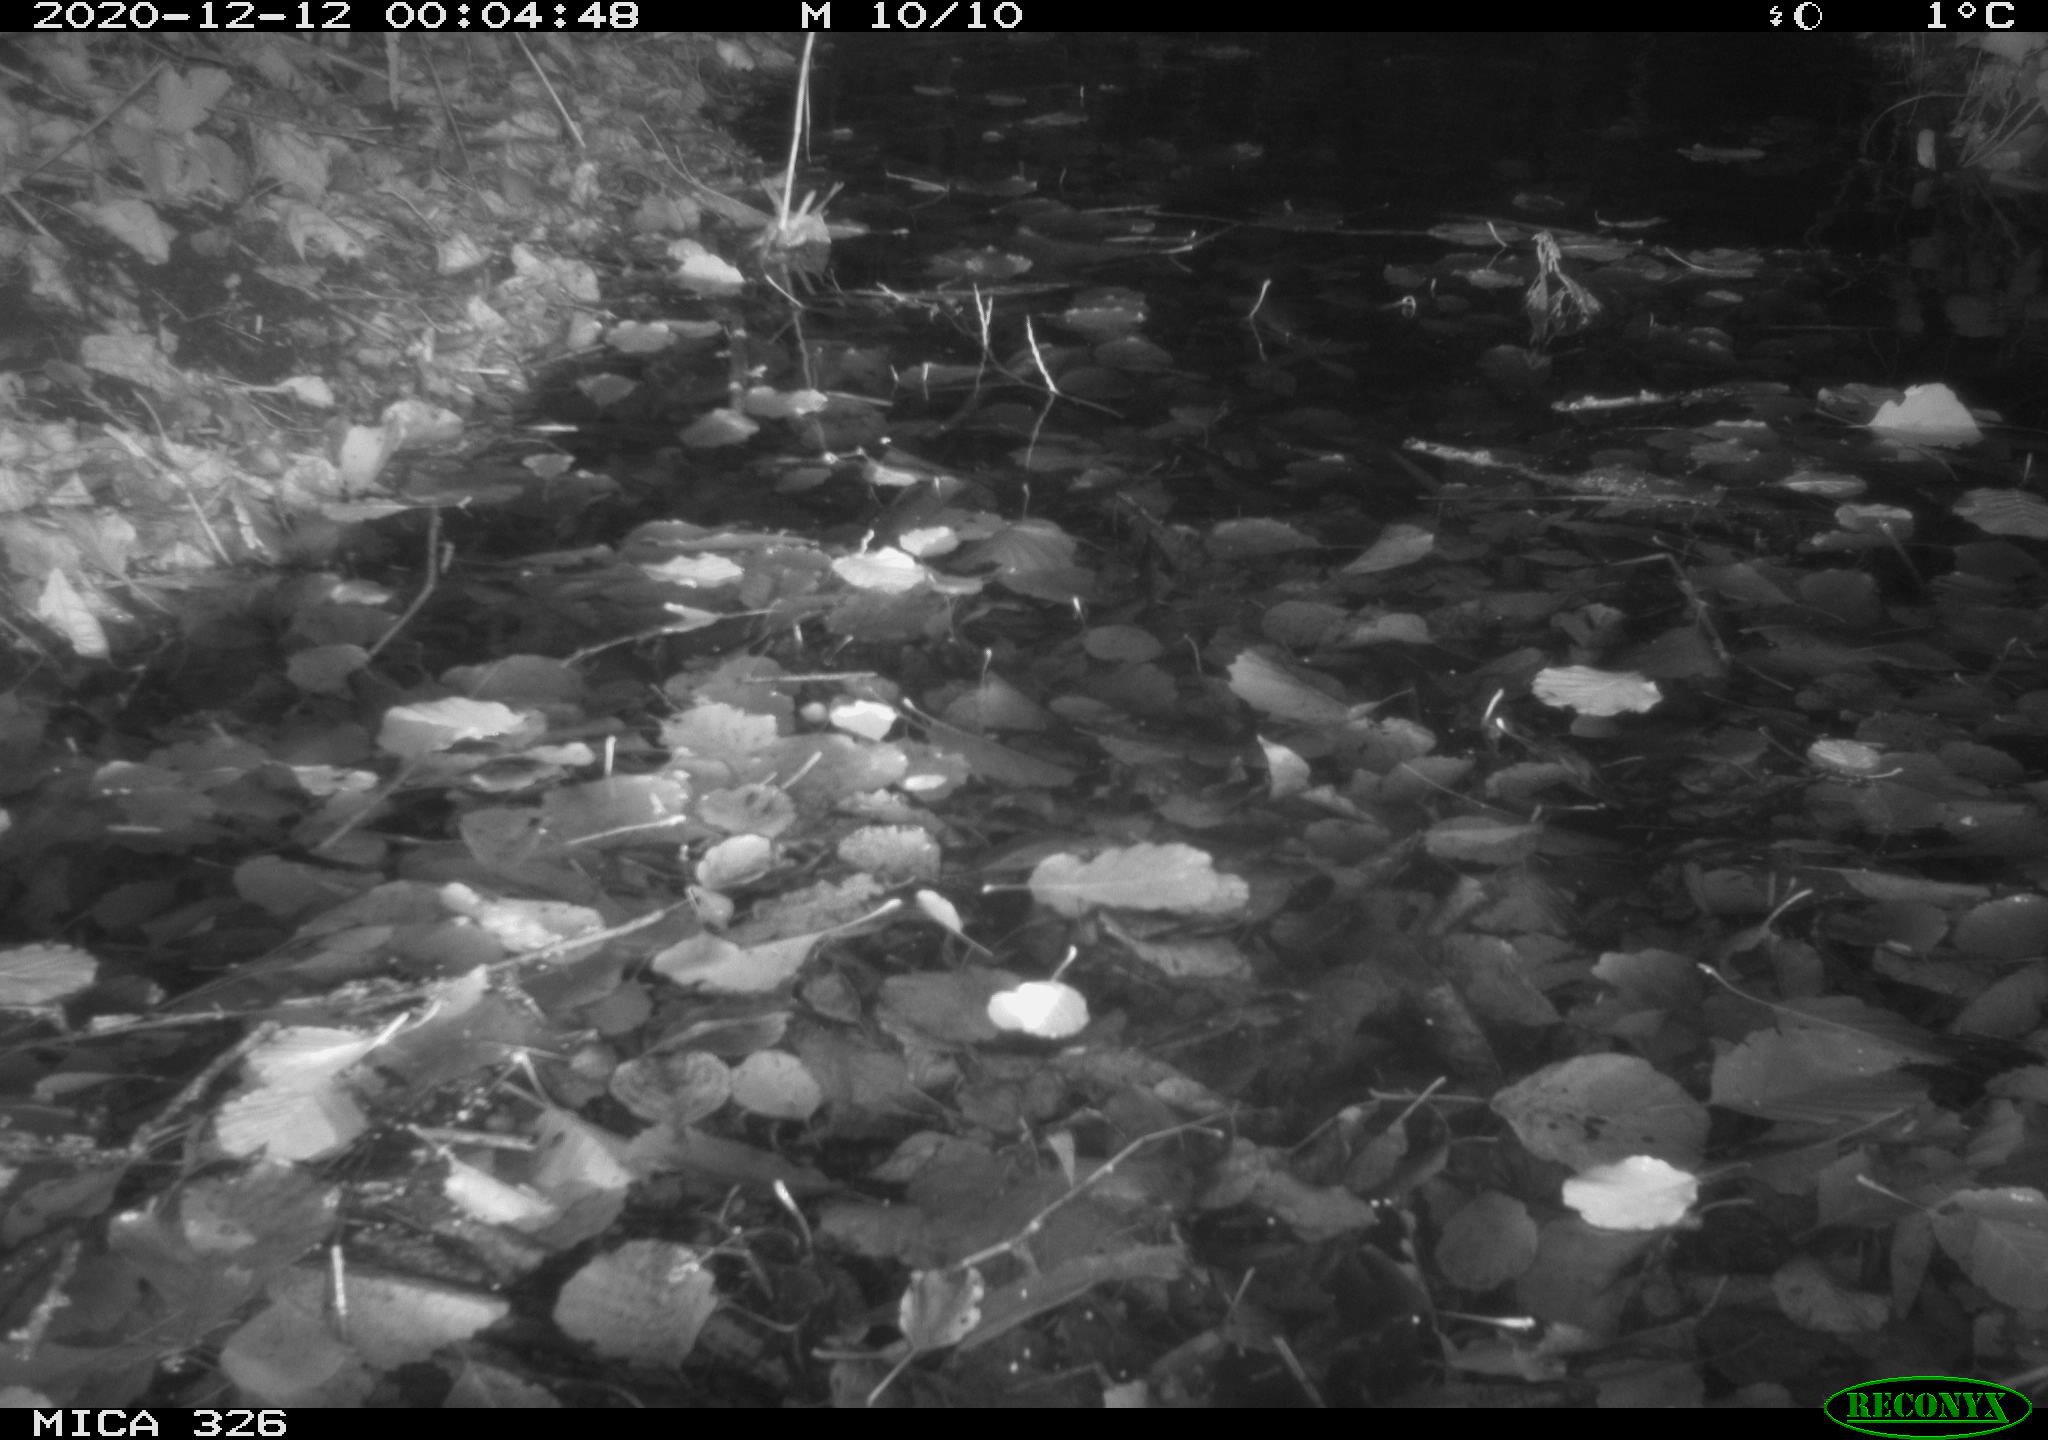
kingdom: Animalia
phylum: Chordata
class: Mammalia
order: Rodentia
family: Cricetidae
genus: Ondatra
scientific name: Ondatra zibethicus
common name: Muskrat
